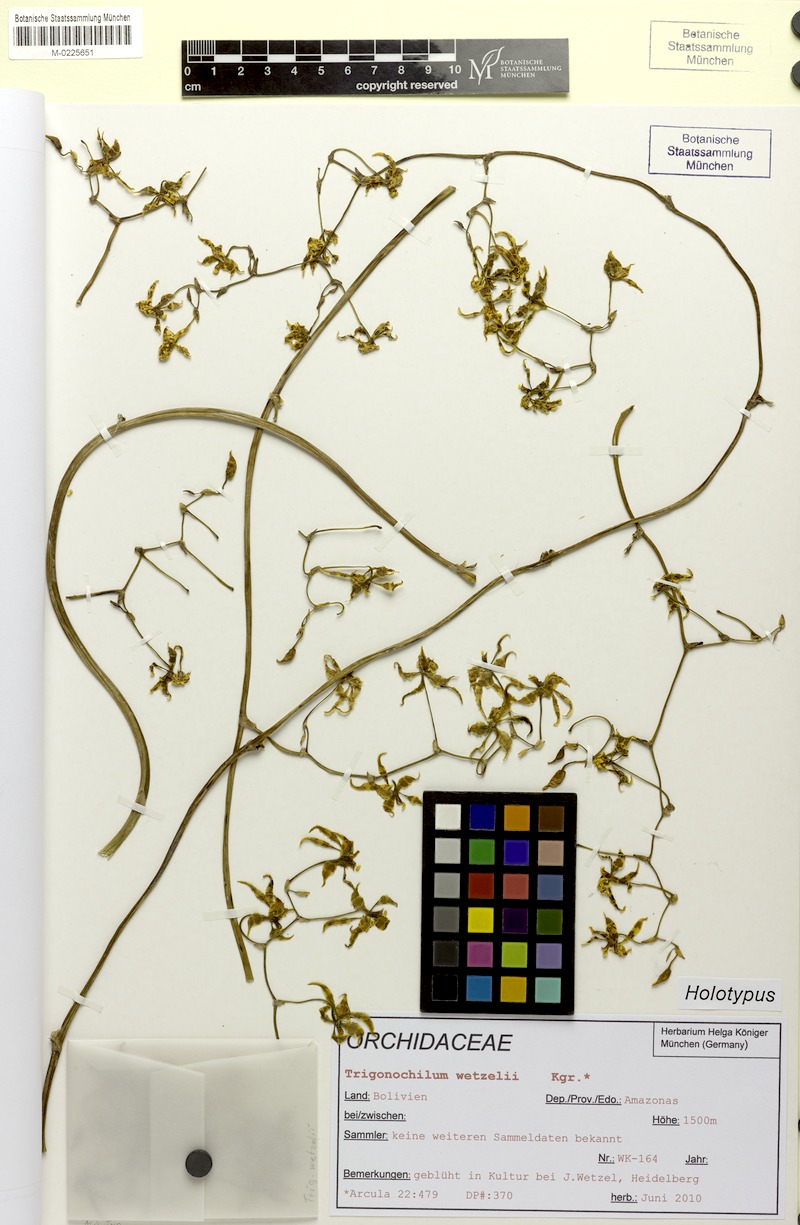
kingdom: Plantae
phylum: Tracheophyta
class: Liliopsida
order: Asparagales
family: Orchidaceae
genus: Cyrtochilum
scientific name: Cyrtochilum wetzelii
